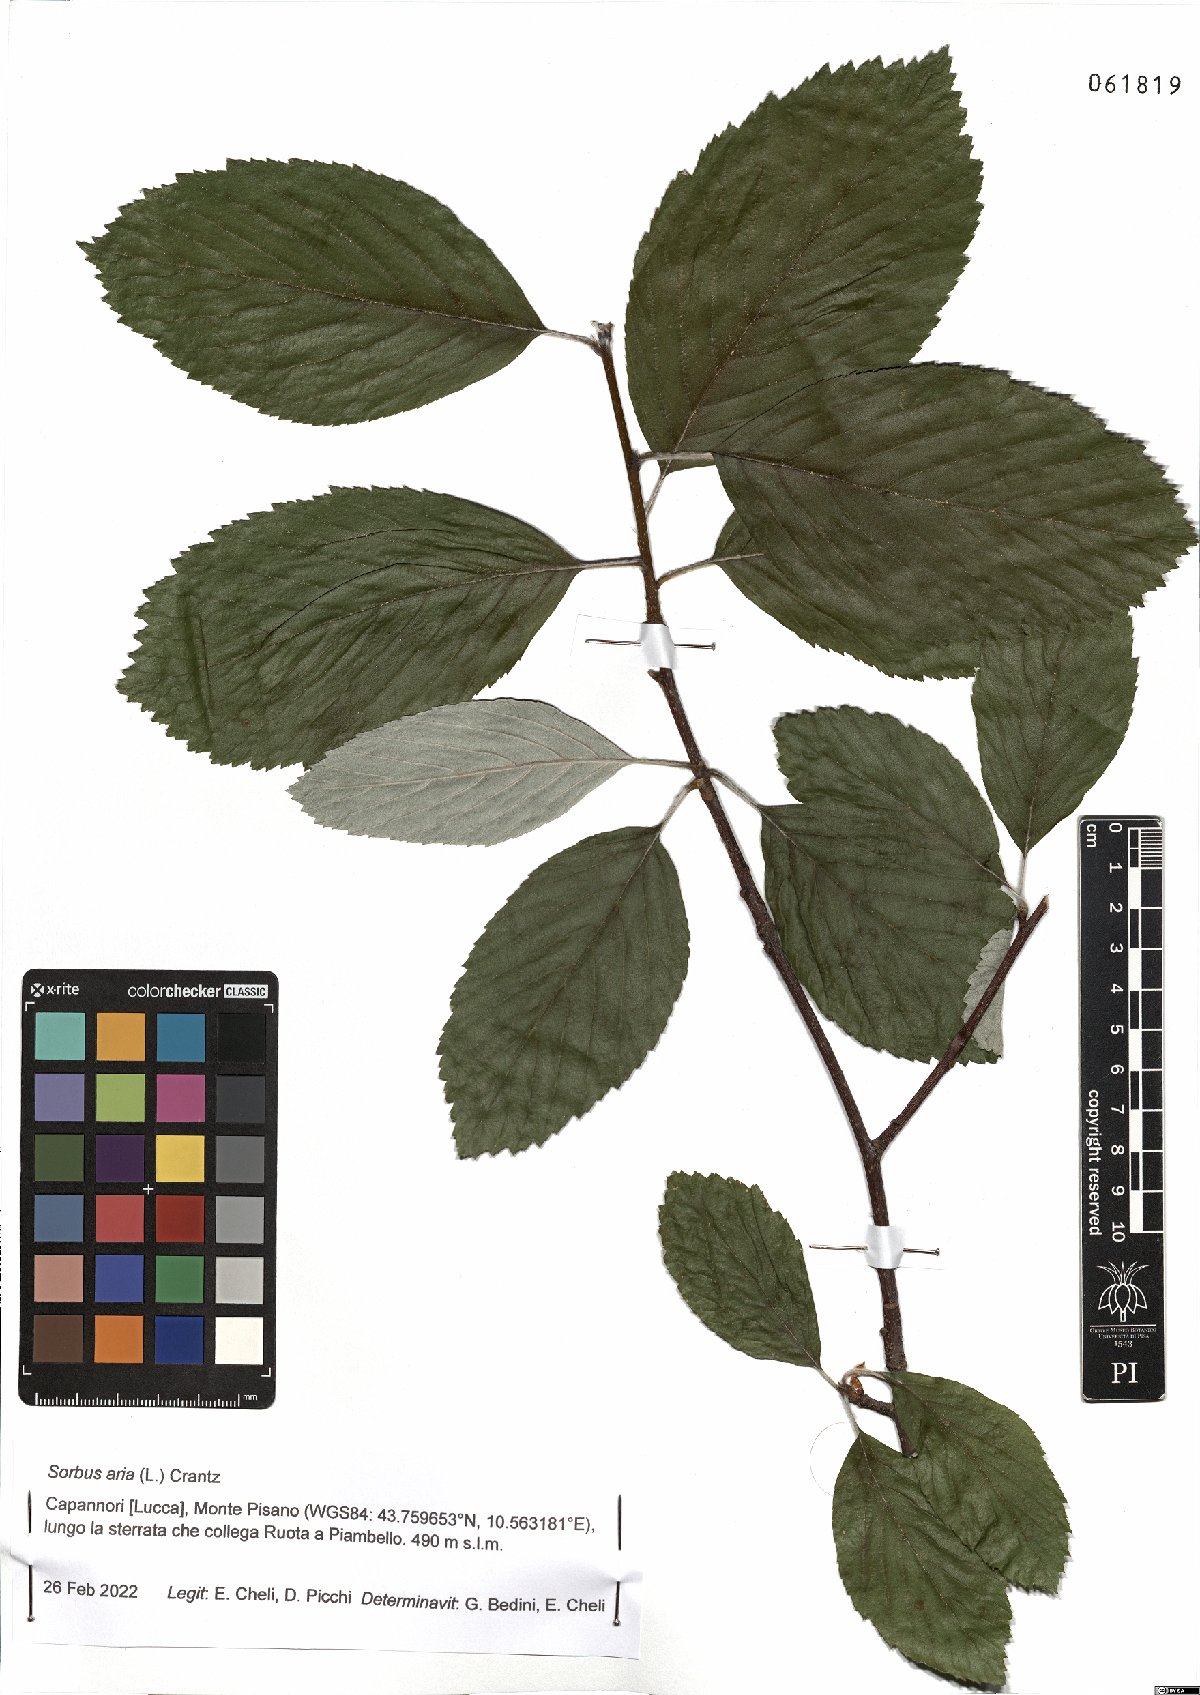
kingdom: Plantae
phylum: Tracheophyta
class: Magnoliopsida
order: Rosales
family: Rosaceae
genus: Aria
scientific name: Aria edulis
